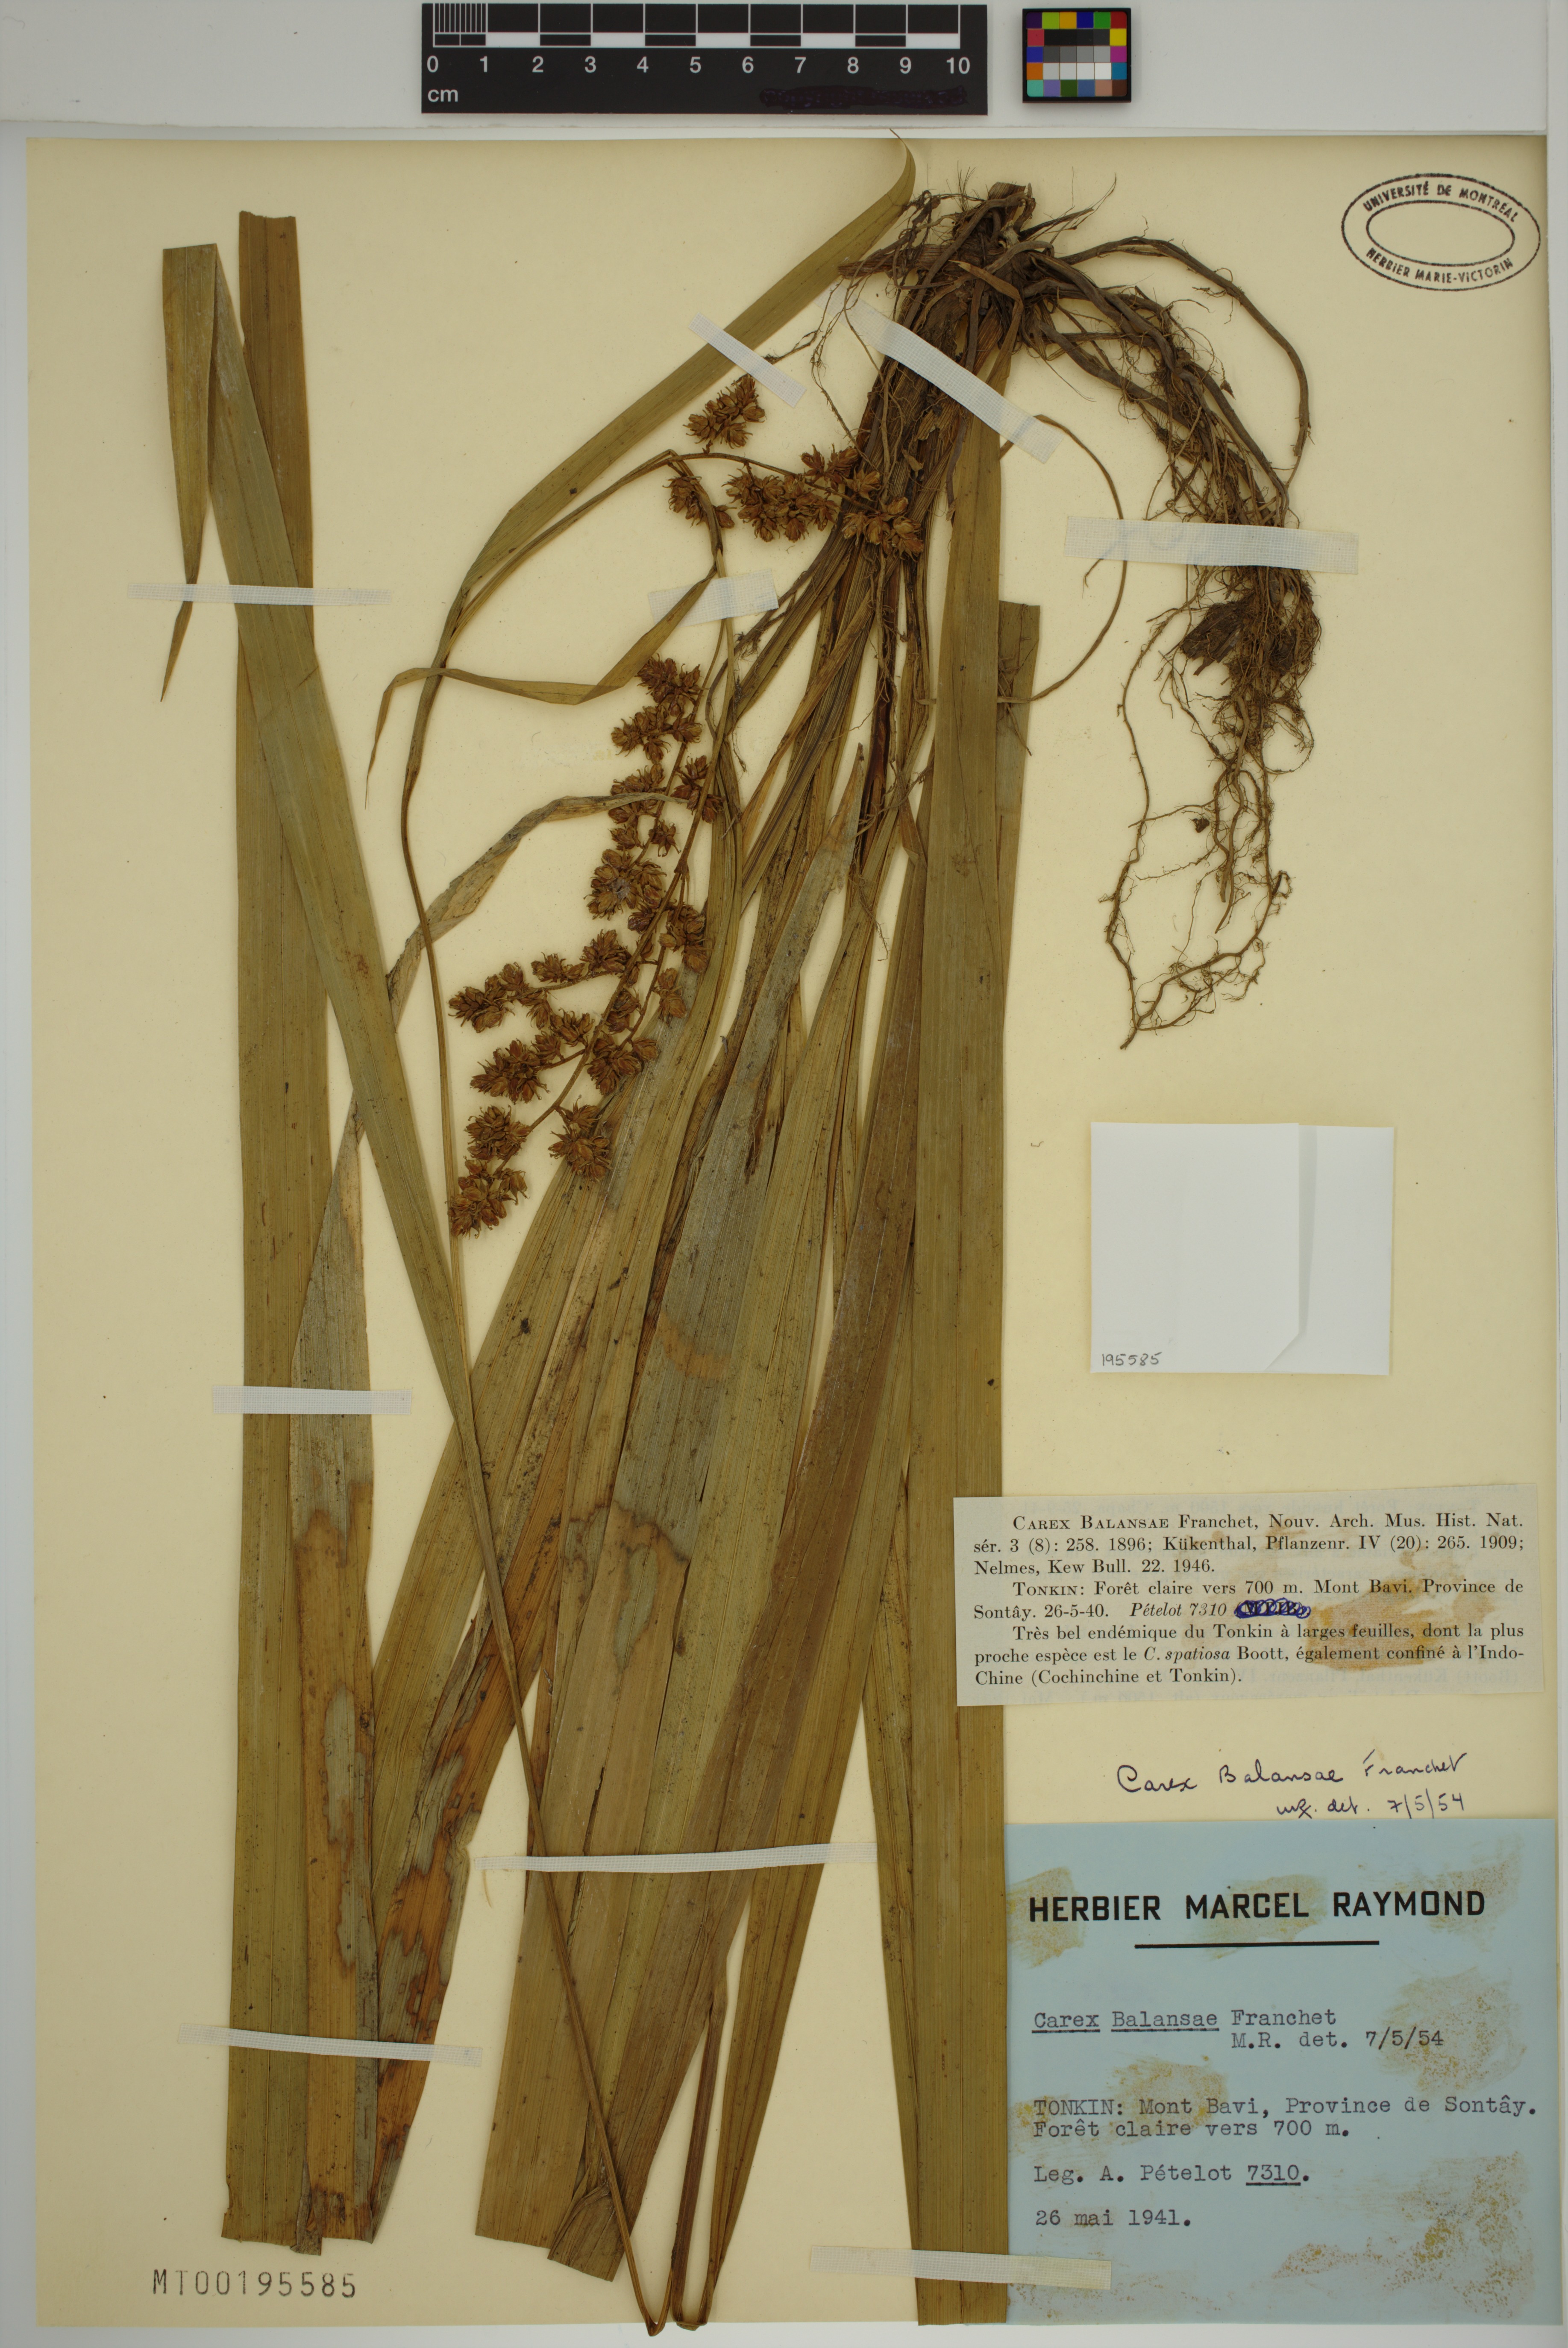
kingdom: Plantae
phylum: Tracheophyta
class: Liliopsida
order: Poales
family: Cyperaceae
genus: Carex
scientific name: Carex balansae
